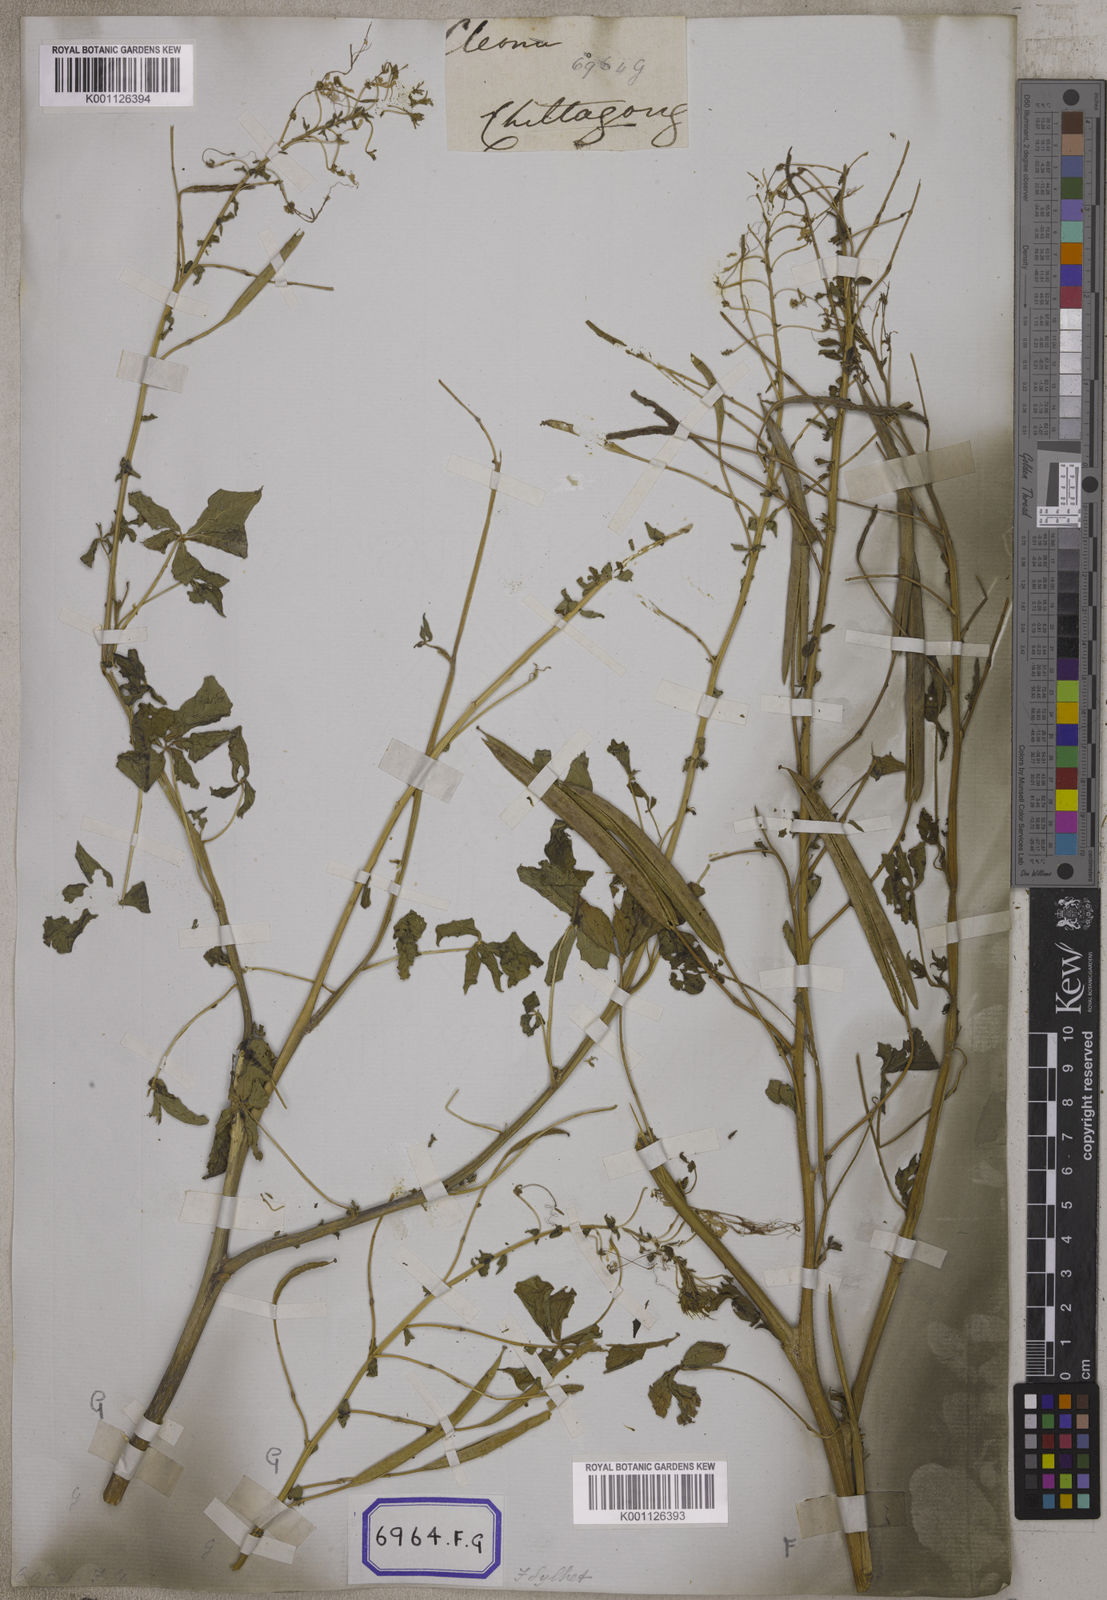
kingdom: Plantae
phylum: Tracheophyta
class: Magnoliopsida
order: Brassicales
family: Cleomaceae
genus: Gynandropsis
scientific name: Gynandropsis gynandra
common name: Spiderwisp
